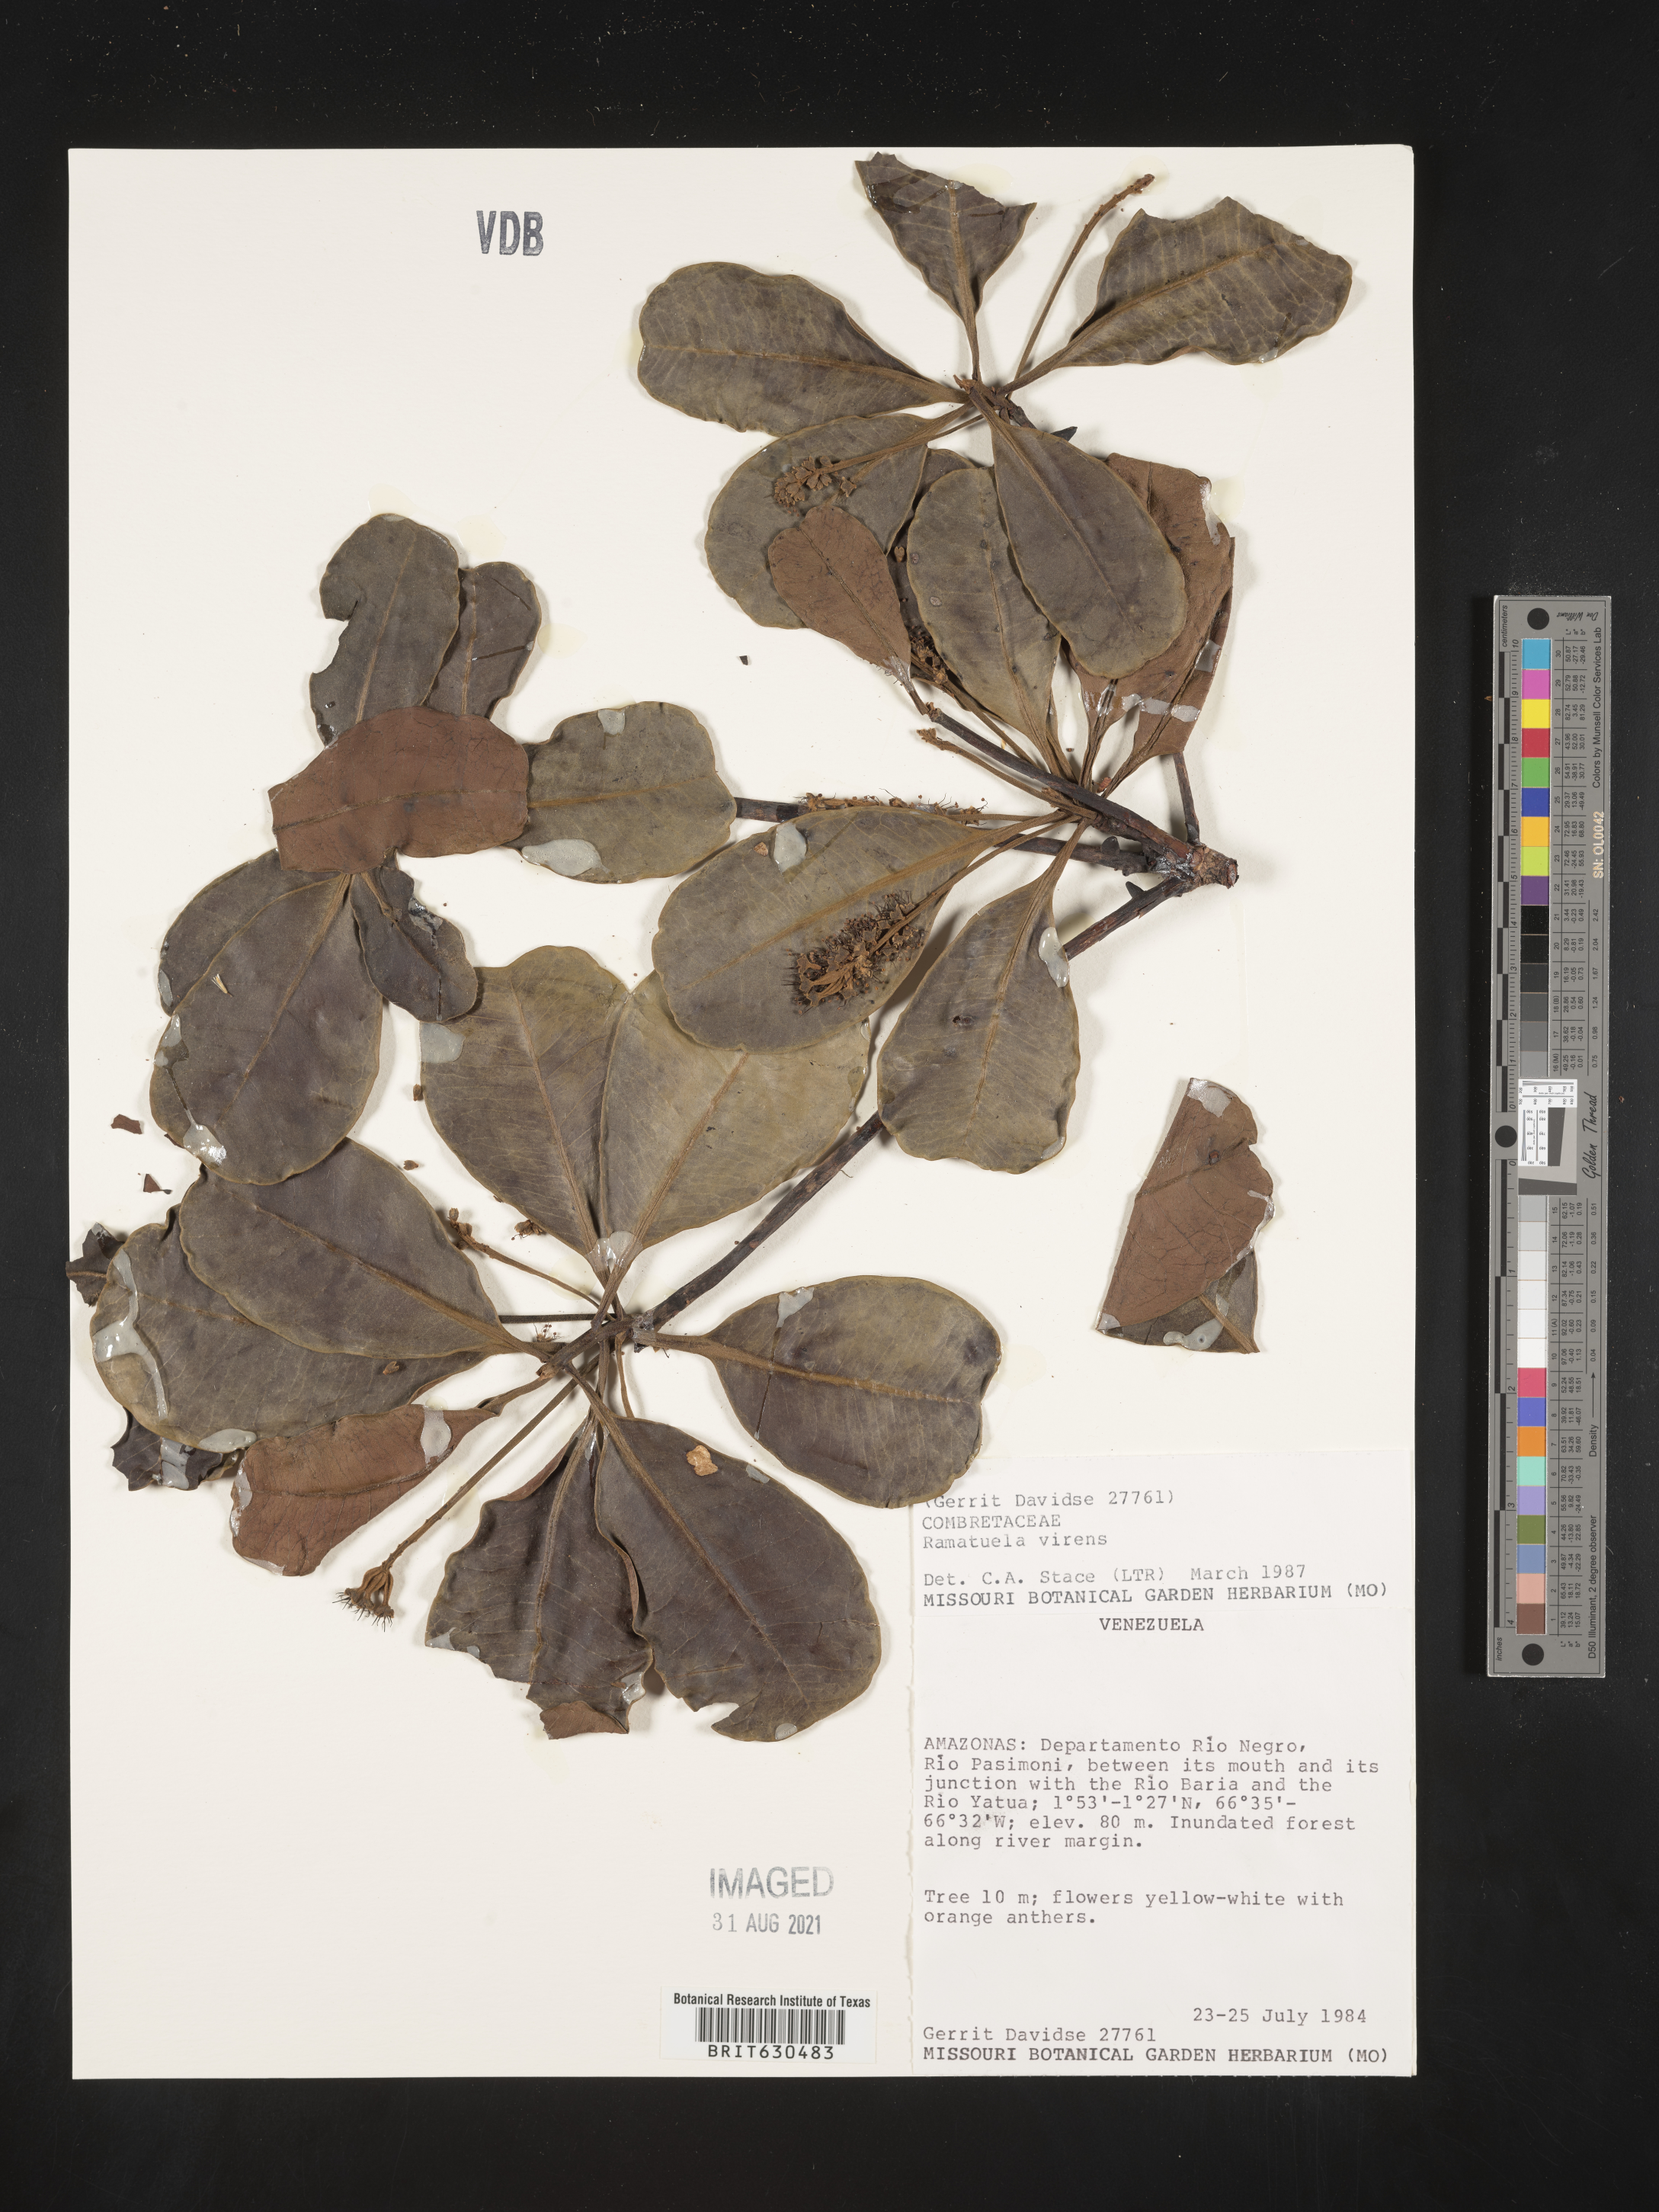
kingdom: Plantae
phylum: Tracheophyta
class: Magnoliopsida
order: Myrtales
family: Combretaceae
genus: Terminalia
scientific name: Terminalia virens
